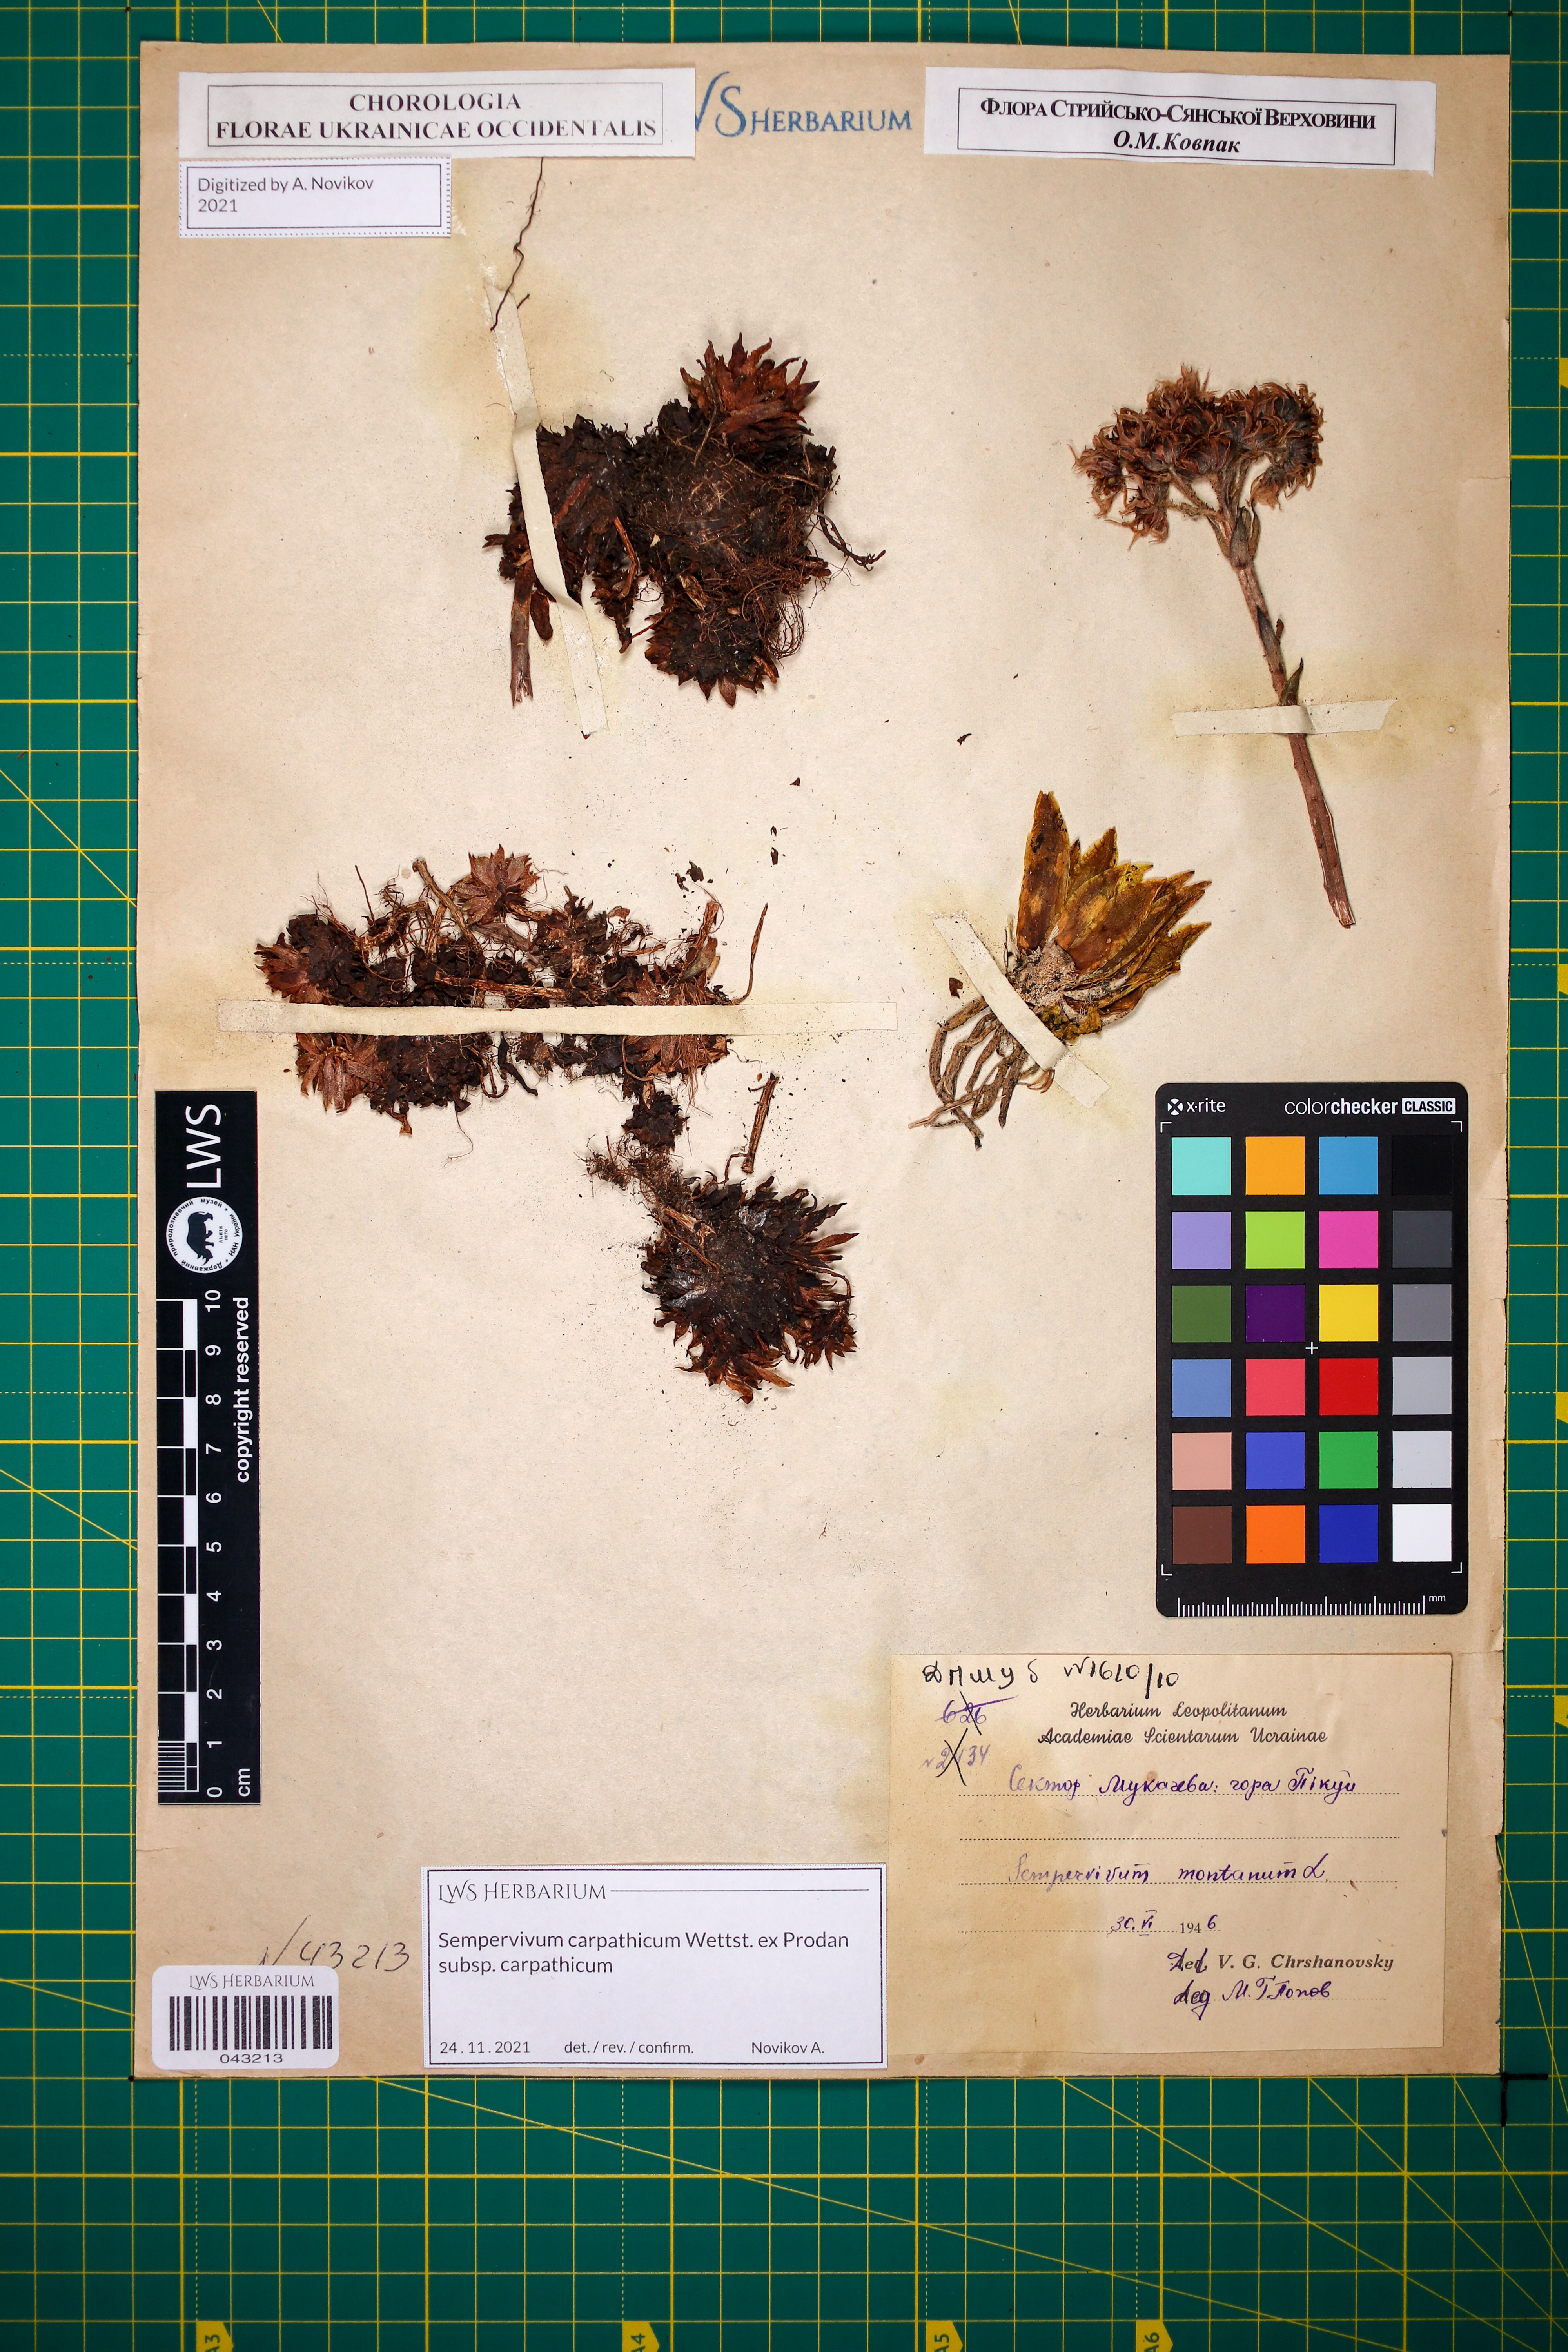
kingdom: Plantae
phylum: Tracheophyta
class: Magnoliopsida
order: Saxifragales
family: Crassulaceae
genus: Sempervivum
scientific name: Sempervivum montanum
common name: Mountain house-leek
